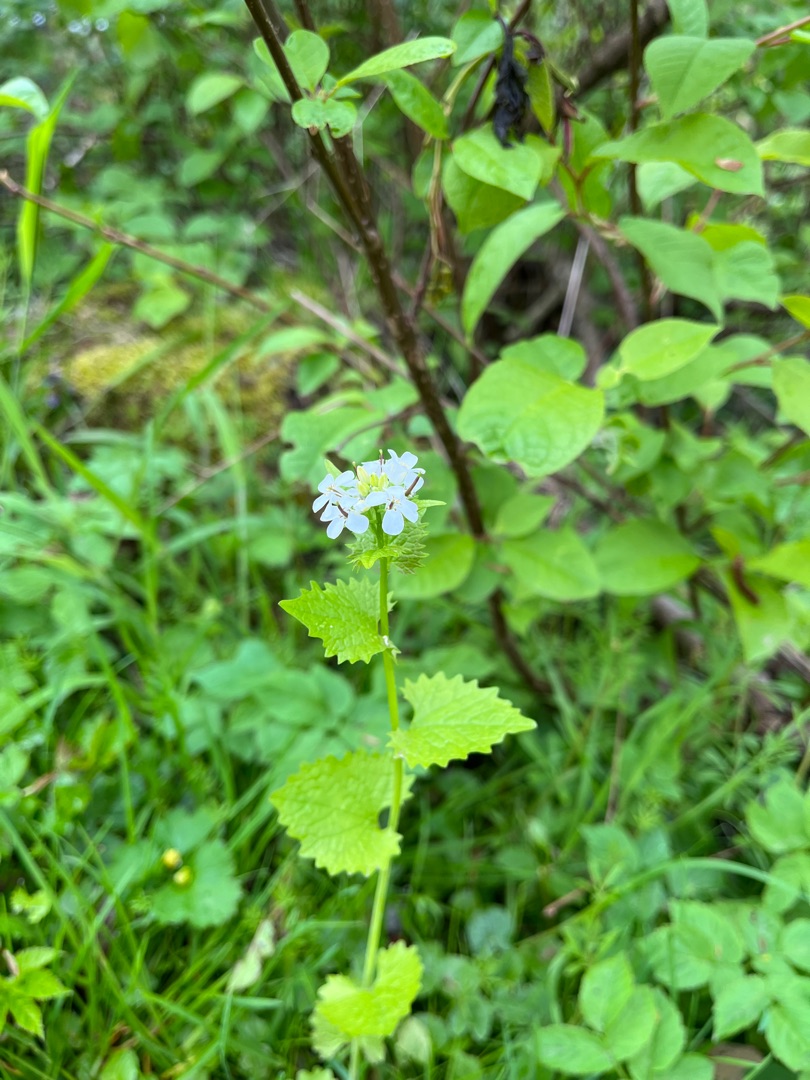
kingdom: Plantae
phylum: Tracheophyta
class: Magnoliopsida
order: Brassicales
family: Brassicaceae
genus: Alliaria
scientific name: Alliaria petiolata
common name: Løgkarse
